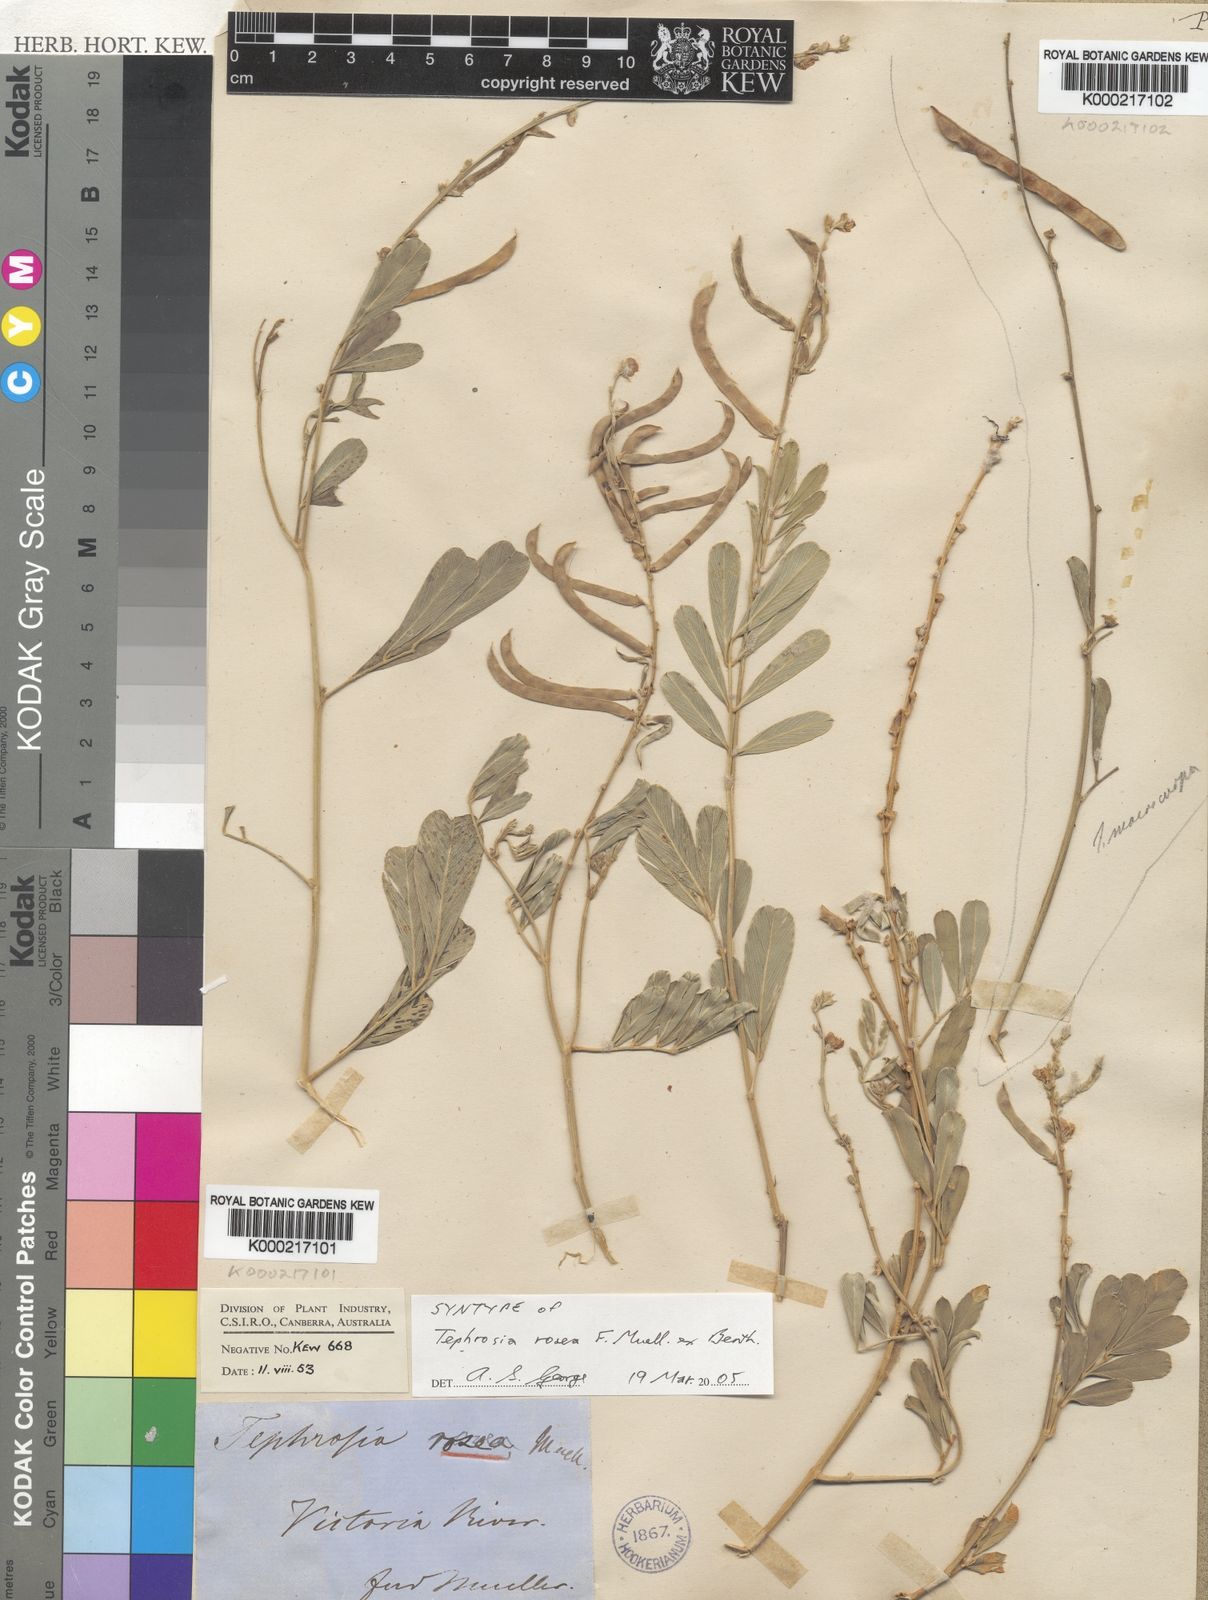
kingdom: Plantae
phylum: Tracheophyta
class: Magnoliopsida
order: Fabales
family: Fabaceae
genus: Tephrosia
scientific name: Tephrosia rosea
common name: Flinders river-poison
